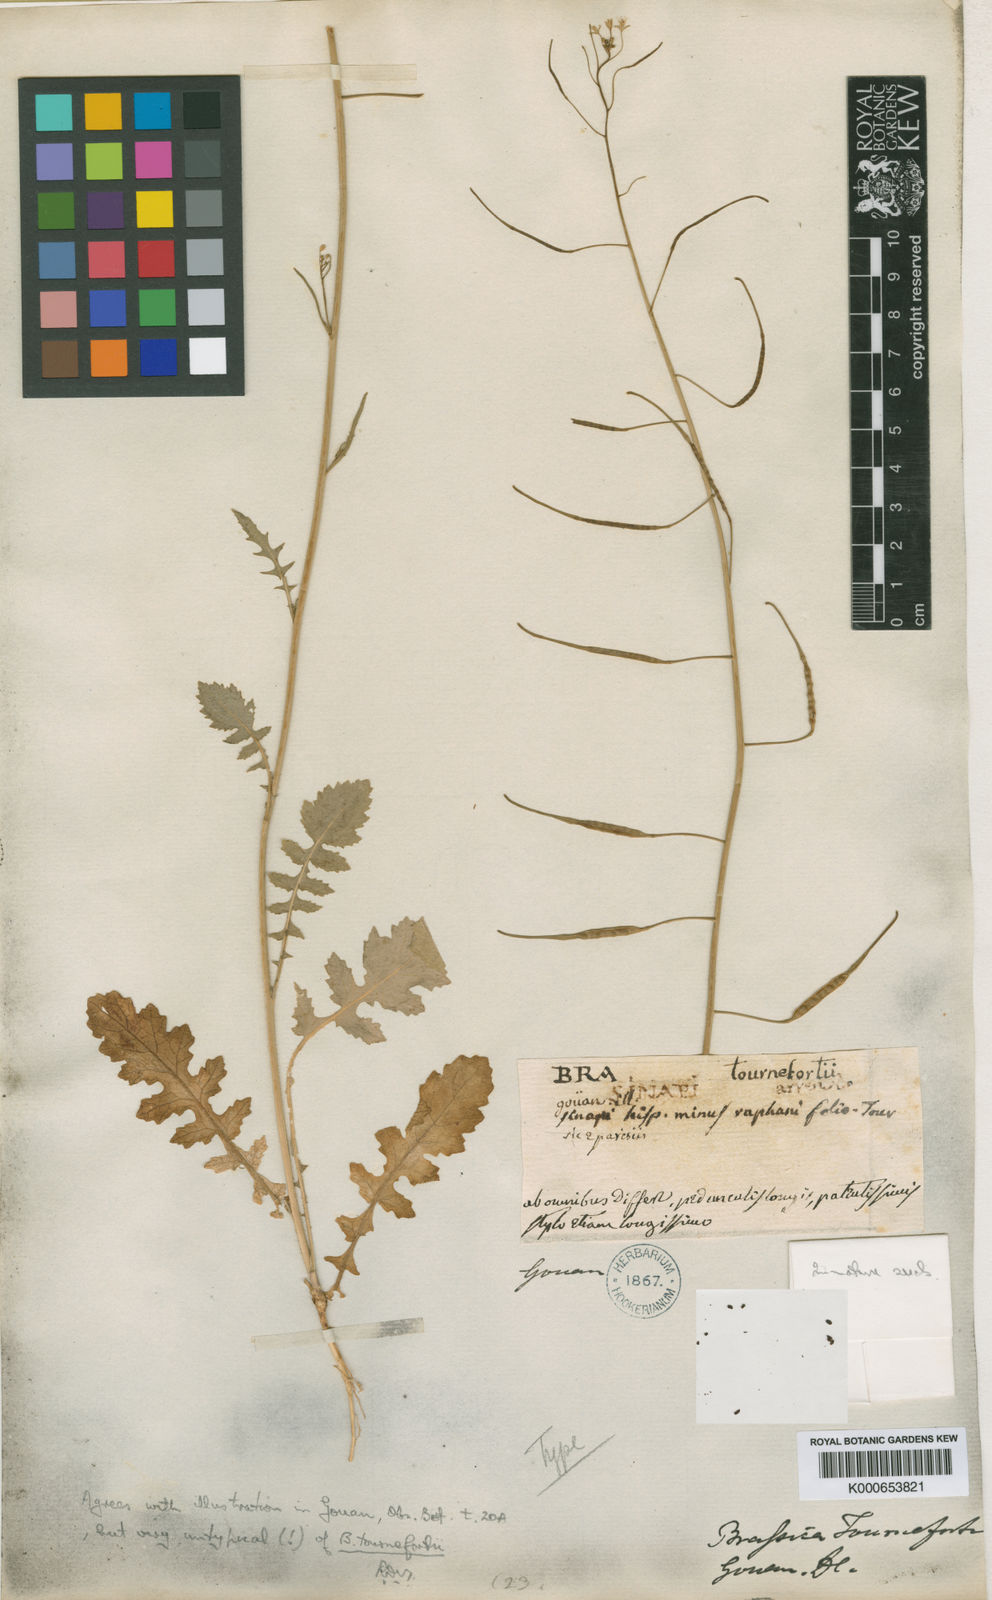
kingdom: Plantae
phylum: Tracheophyta
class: Magnoliopsida
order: Brassicales
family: Brassicaceae
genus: Brassica
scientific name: Brassica tournefortii
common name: Pale cabbage
